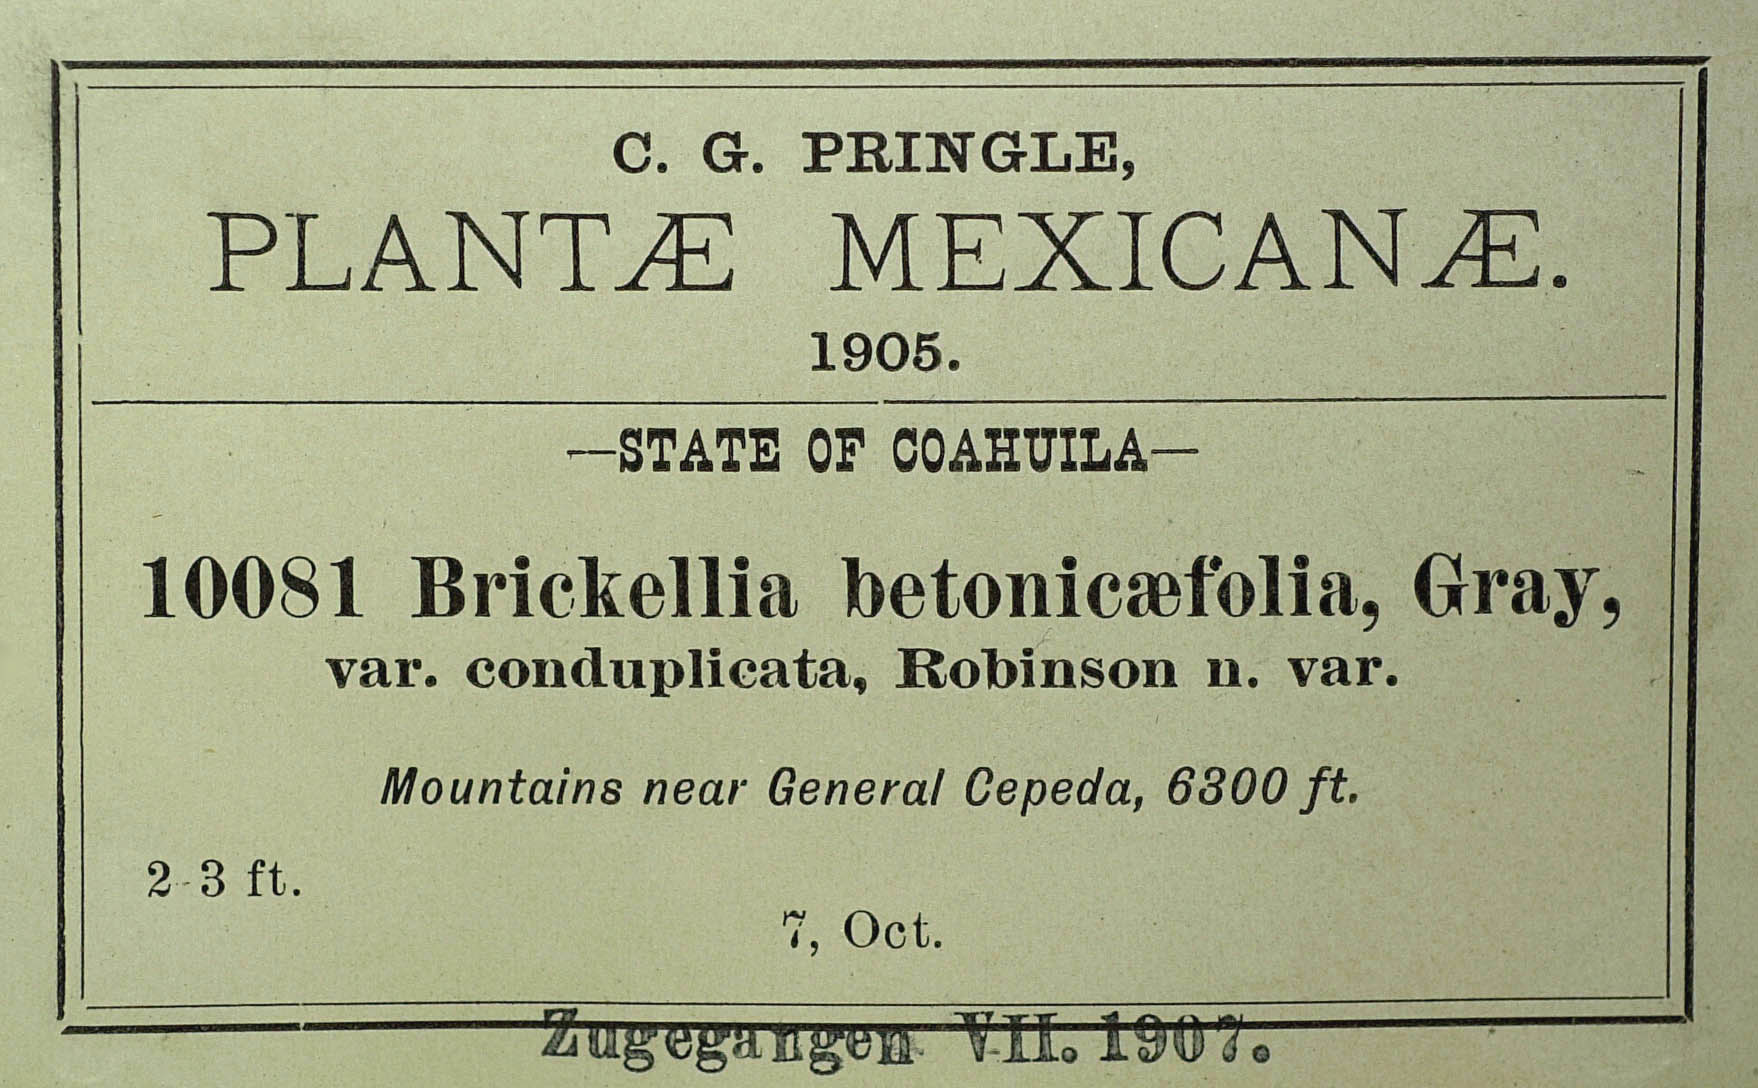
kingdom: Plantae
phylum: Tracheophyta
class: Magnoliopsida
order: Asterales
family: Asteraceae
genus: Brickellia
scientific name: Brickellia betonicaefolia
